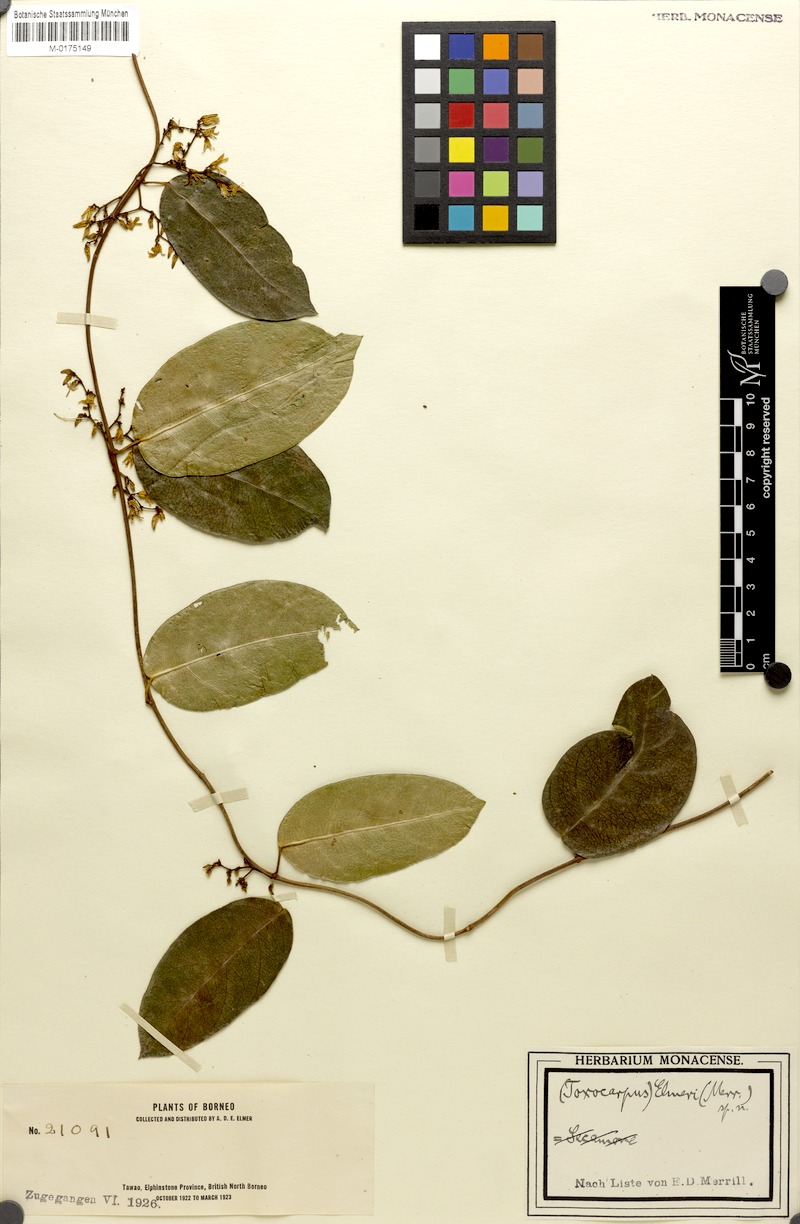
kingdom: Plantae
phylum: Tracheophyta
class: Magnoliopsida
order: Gentianales
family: Apocynaceae
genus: Finlaysonia
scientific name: Finlaysonia obovata
